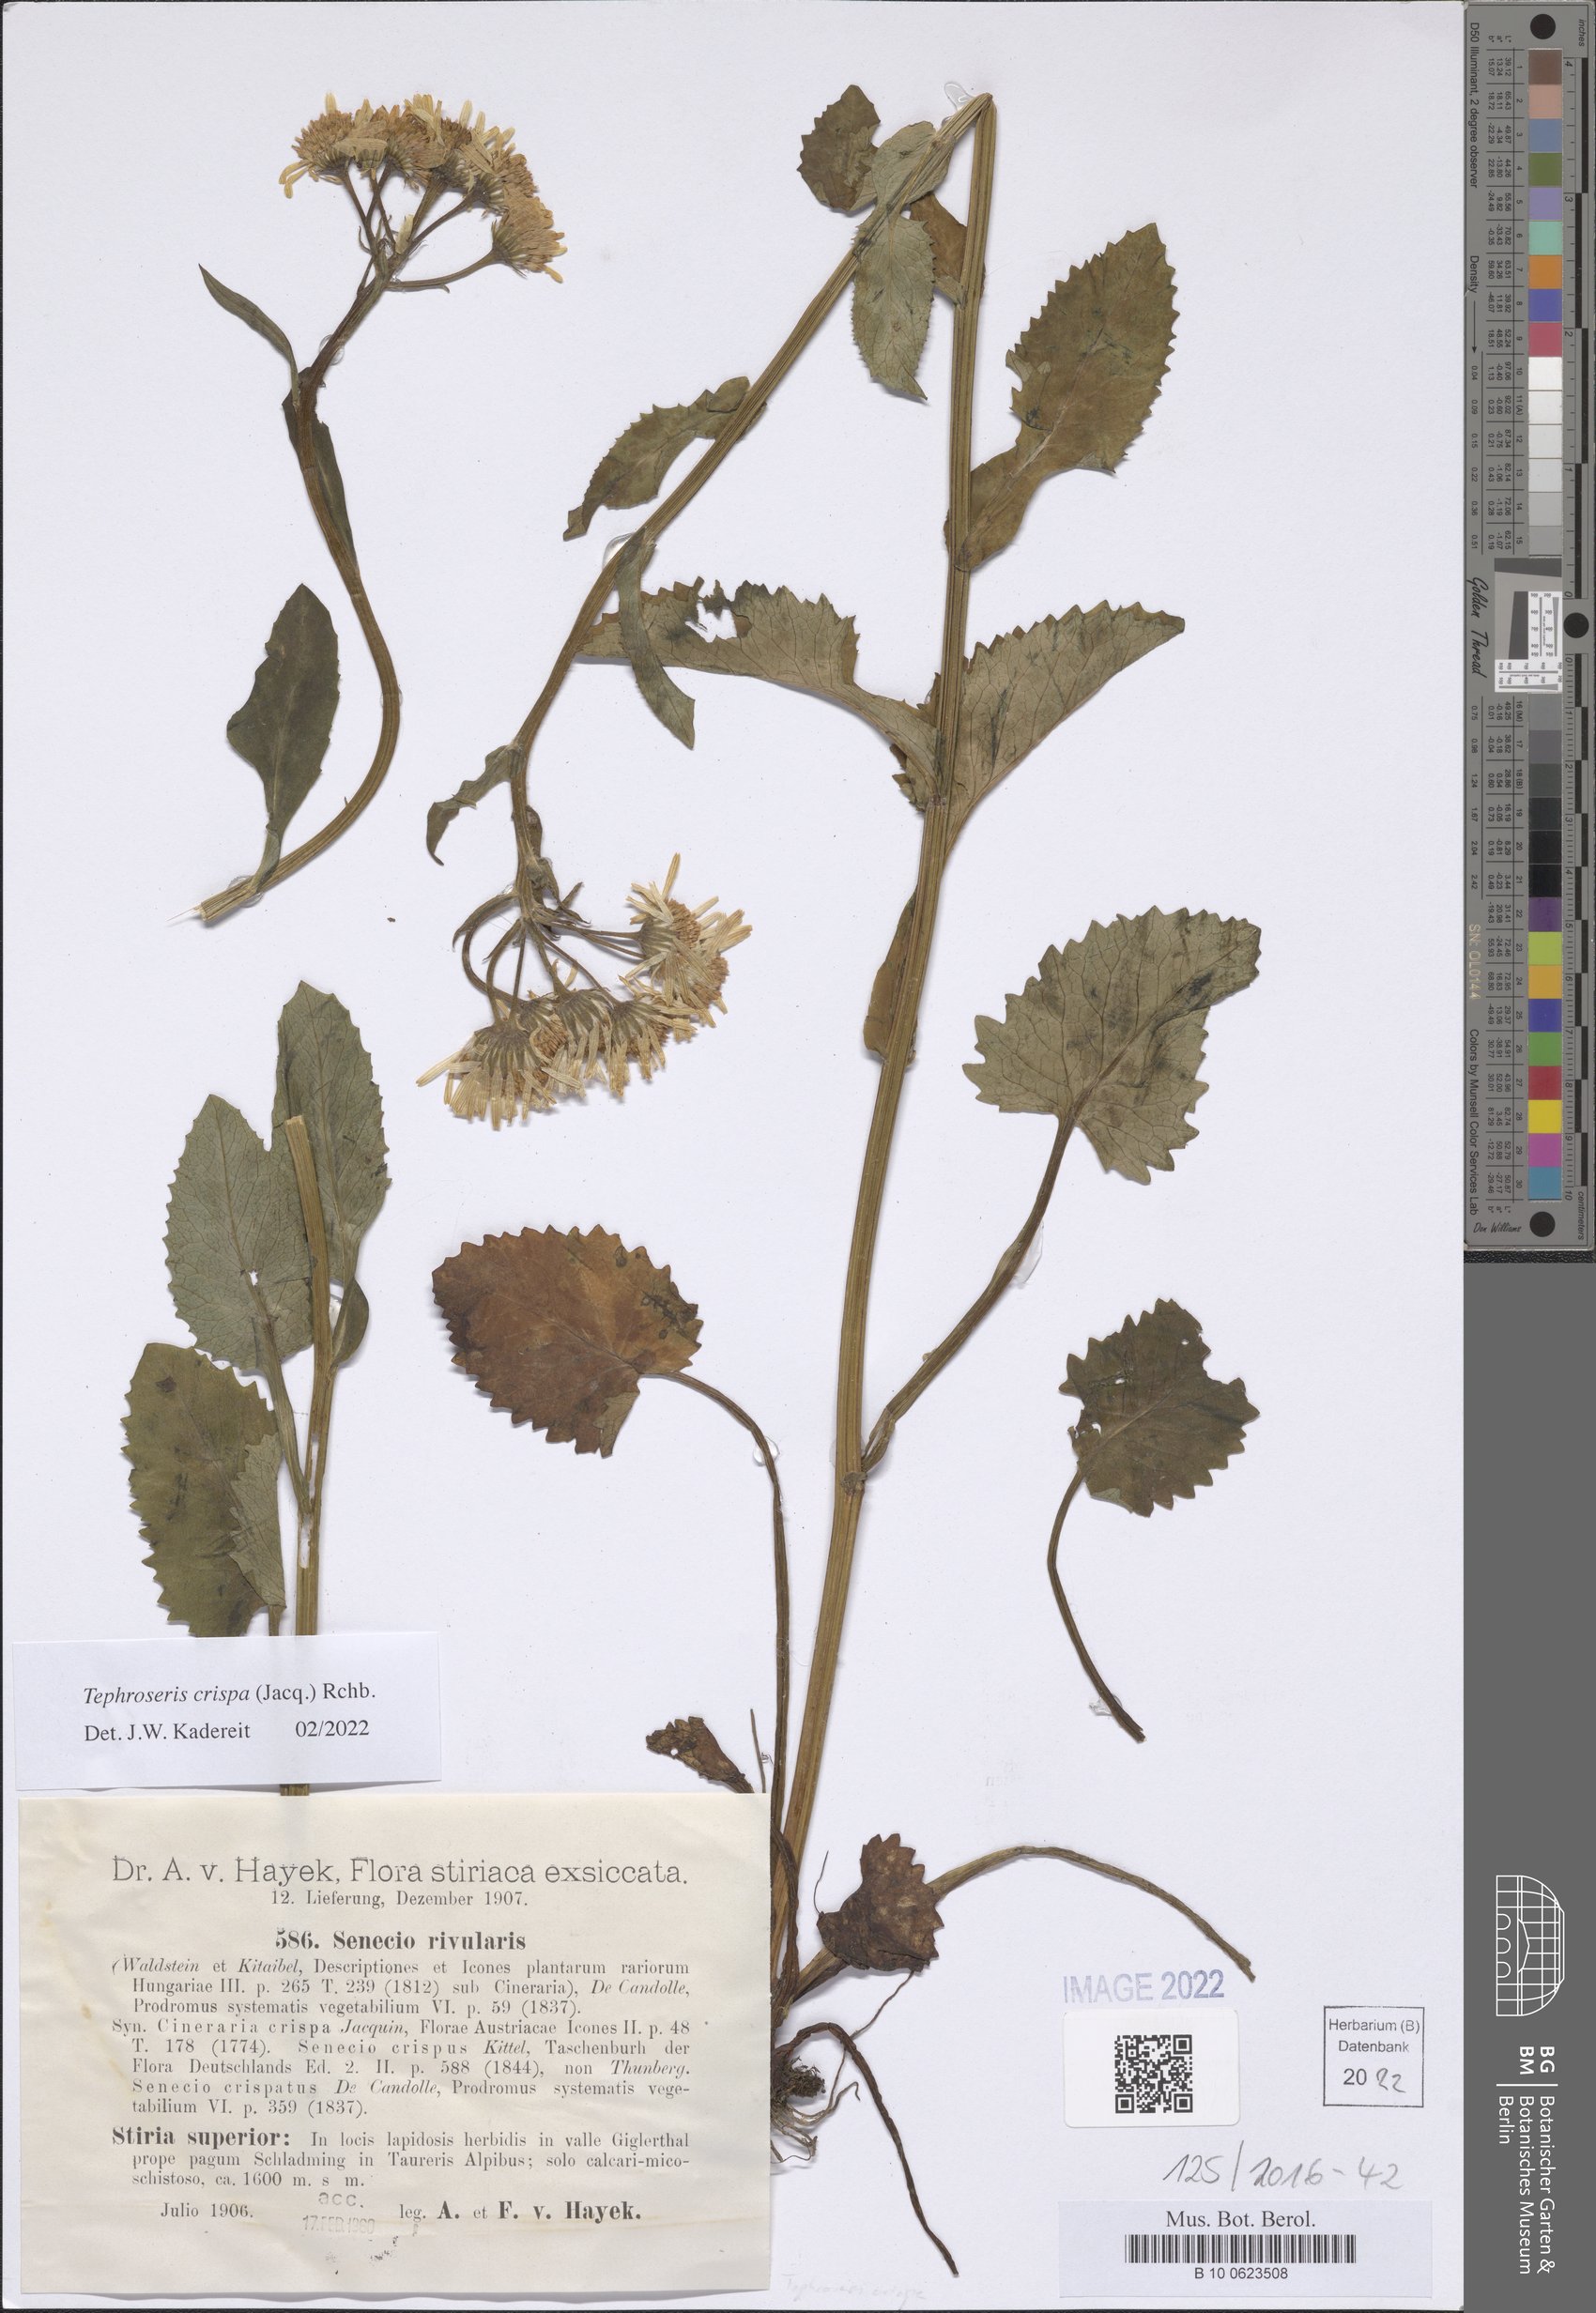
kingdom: Plantae
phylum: Tracheophyta
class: Magnoliopsida
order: Asterales
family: Asteraceae
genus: Tephroseris
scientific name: Tephroseris crispa
